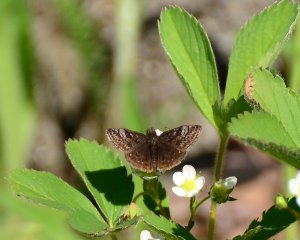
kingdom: Animalia
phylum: Arthropoda
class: Insecta
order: Lepidoptera
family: Hesperiidae
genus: Erynnis
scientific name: Erynnis icelus
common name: Dreamy Duskywing
